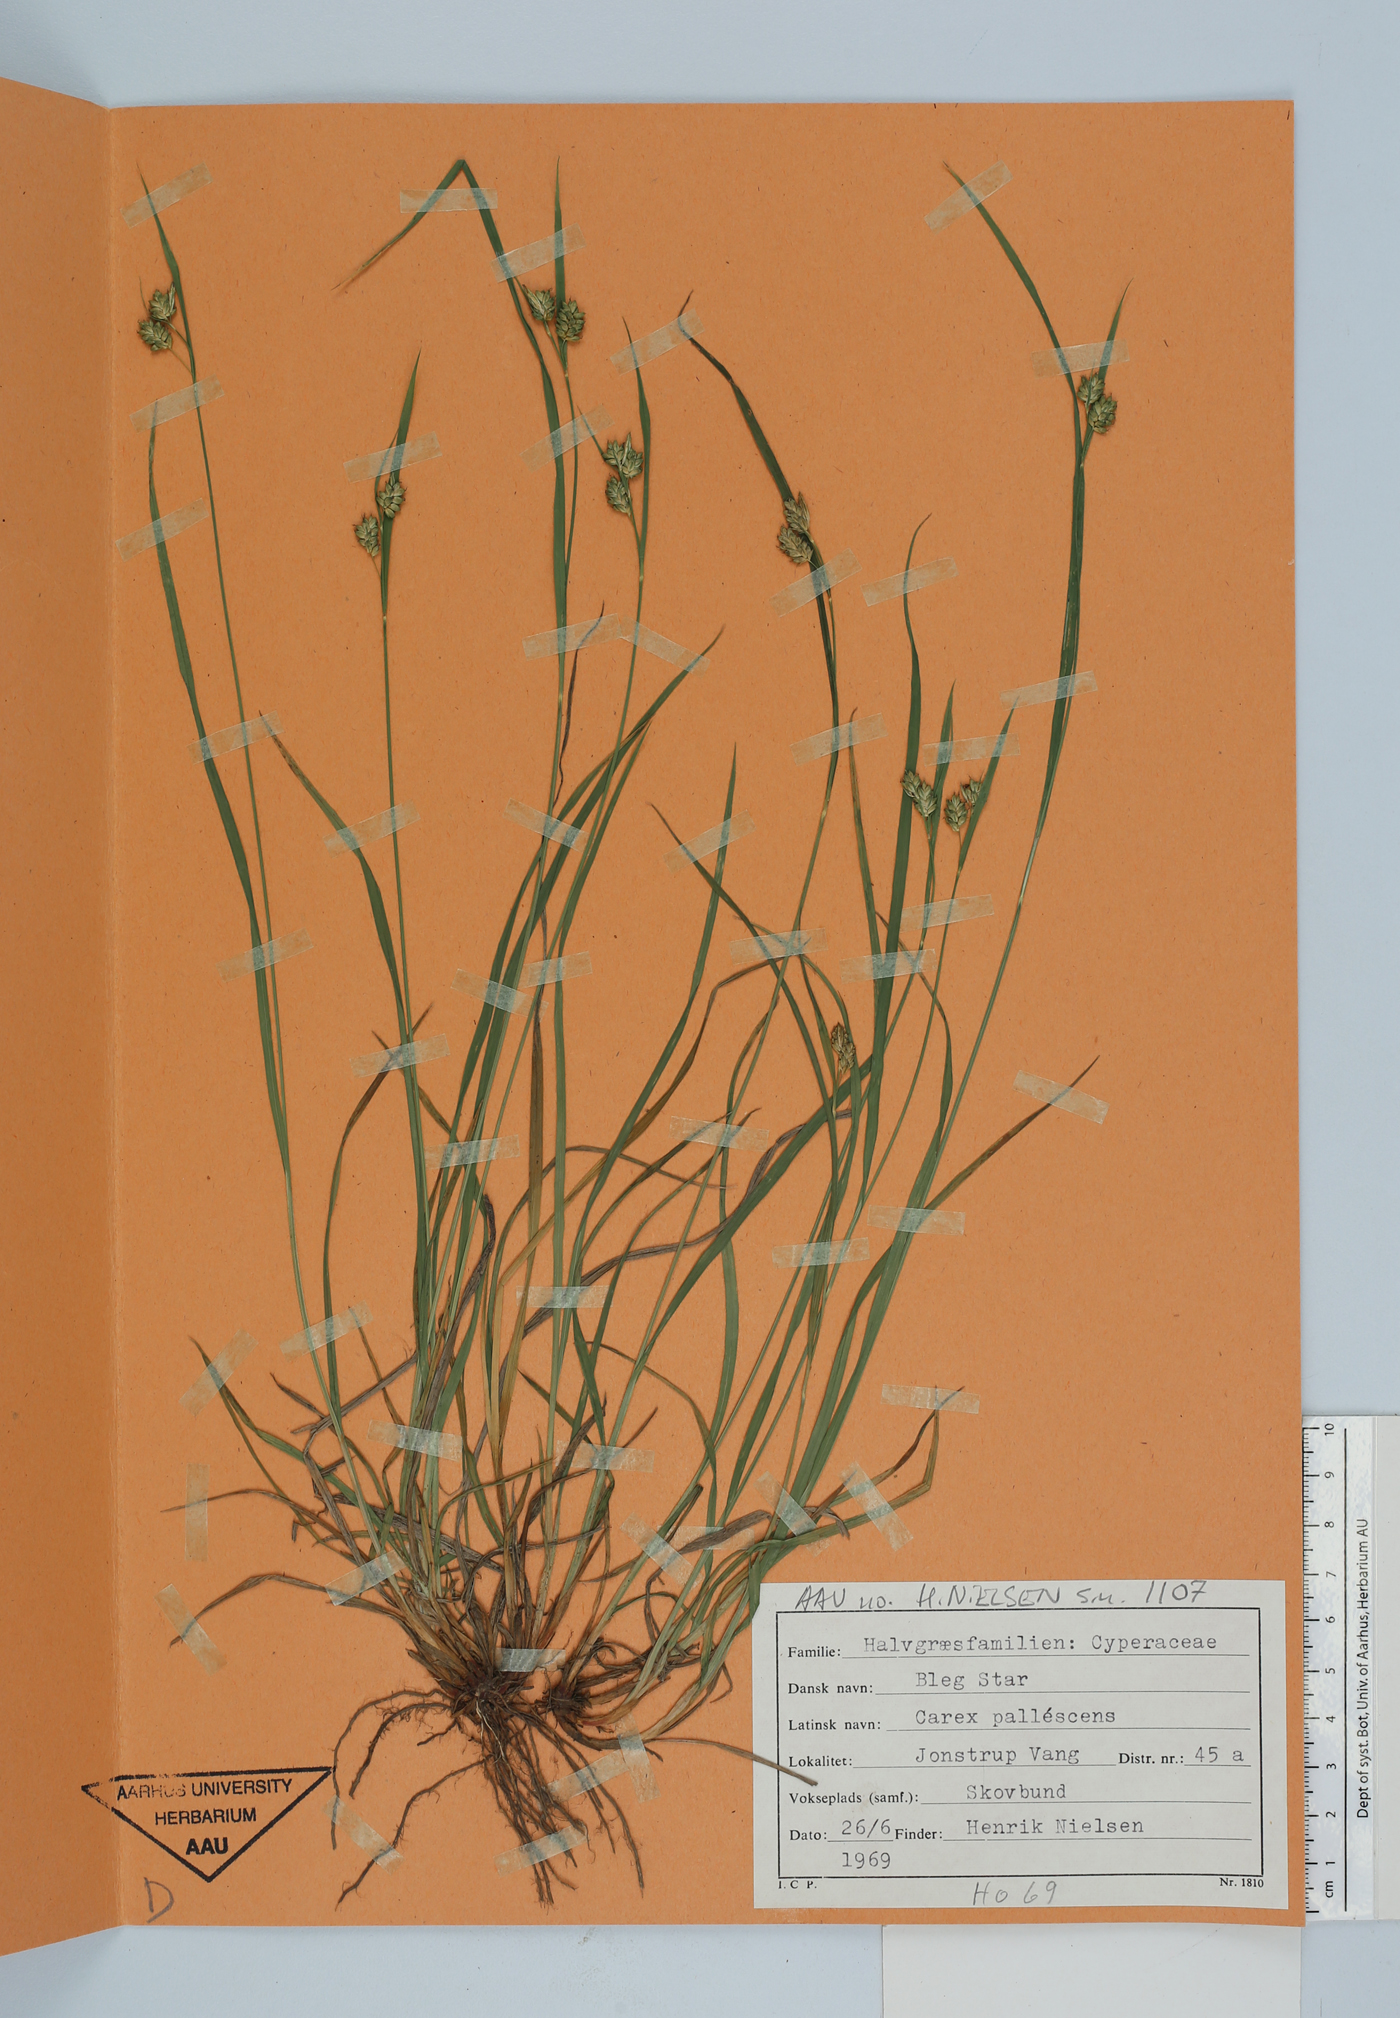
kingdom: Plantae
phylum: Tracheophyta
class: Liliopsida
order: Poales
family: Cyperaceae
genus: Carex
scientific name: Carex pallescens
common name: Pale sedge
